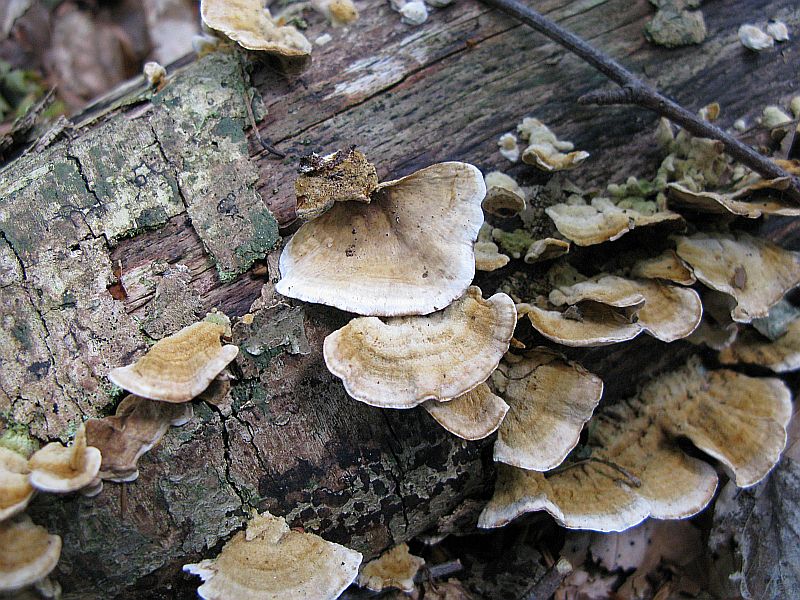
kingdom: Fungi
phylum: Basidiomycota
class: Agaricomycetes
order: Russulales
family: Stereaceae
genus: Stereum
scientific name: Stereum subtomentosum
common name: smuk lædersvamp
